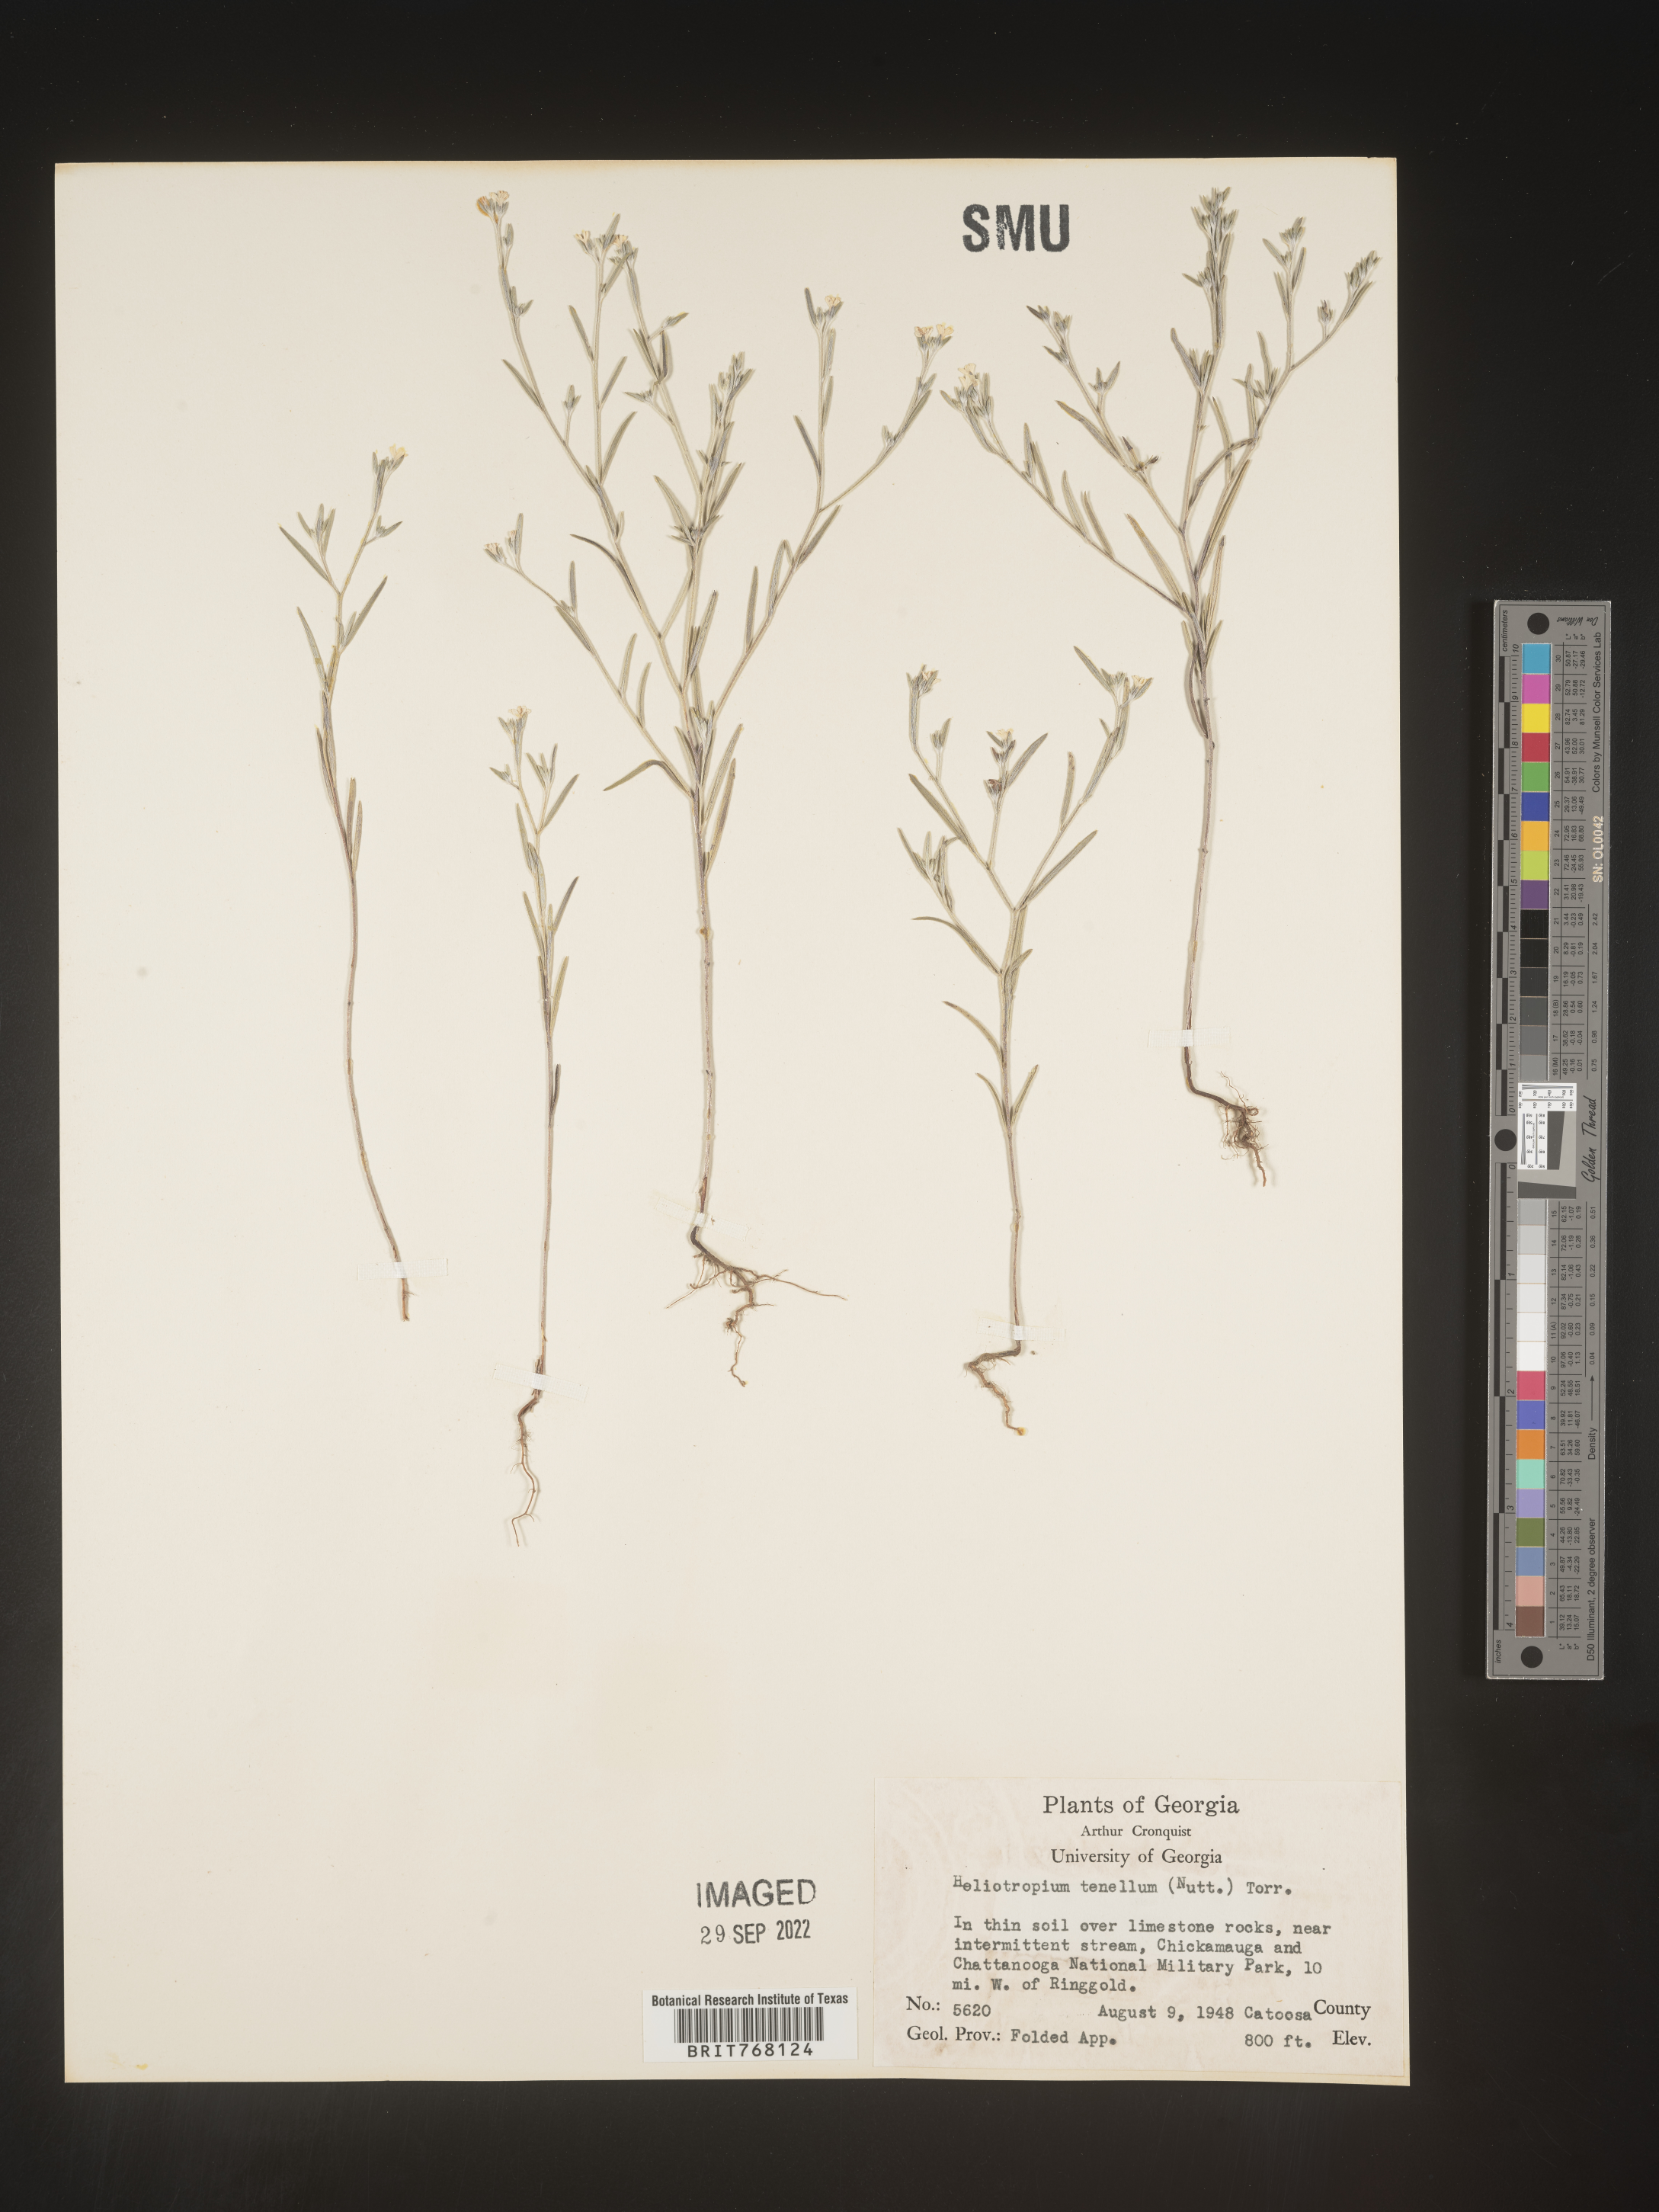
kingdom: Plantae
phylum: Tracheophyta
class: Magnoliopsida
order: Boraginales
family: Heliotropiaceae
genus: Euploca
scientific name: Euploca tenella
